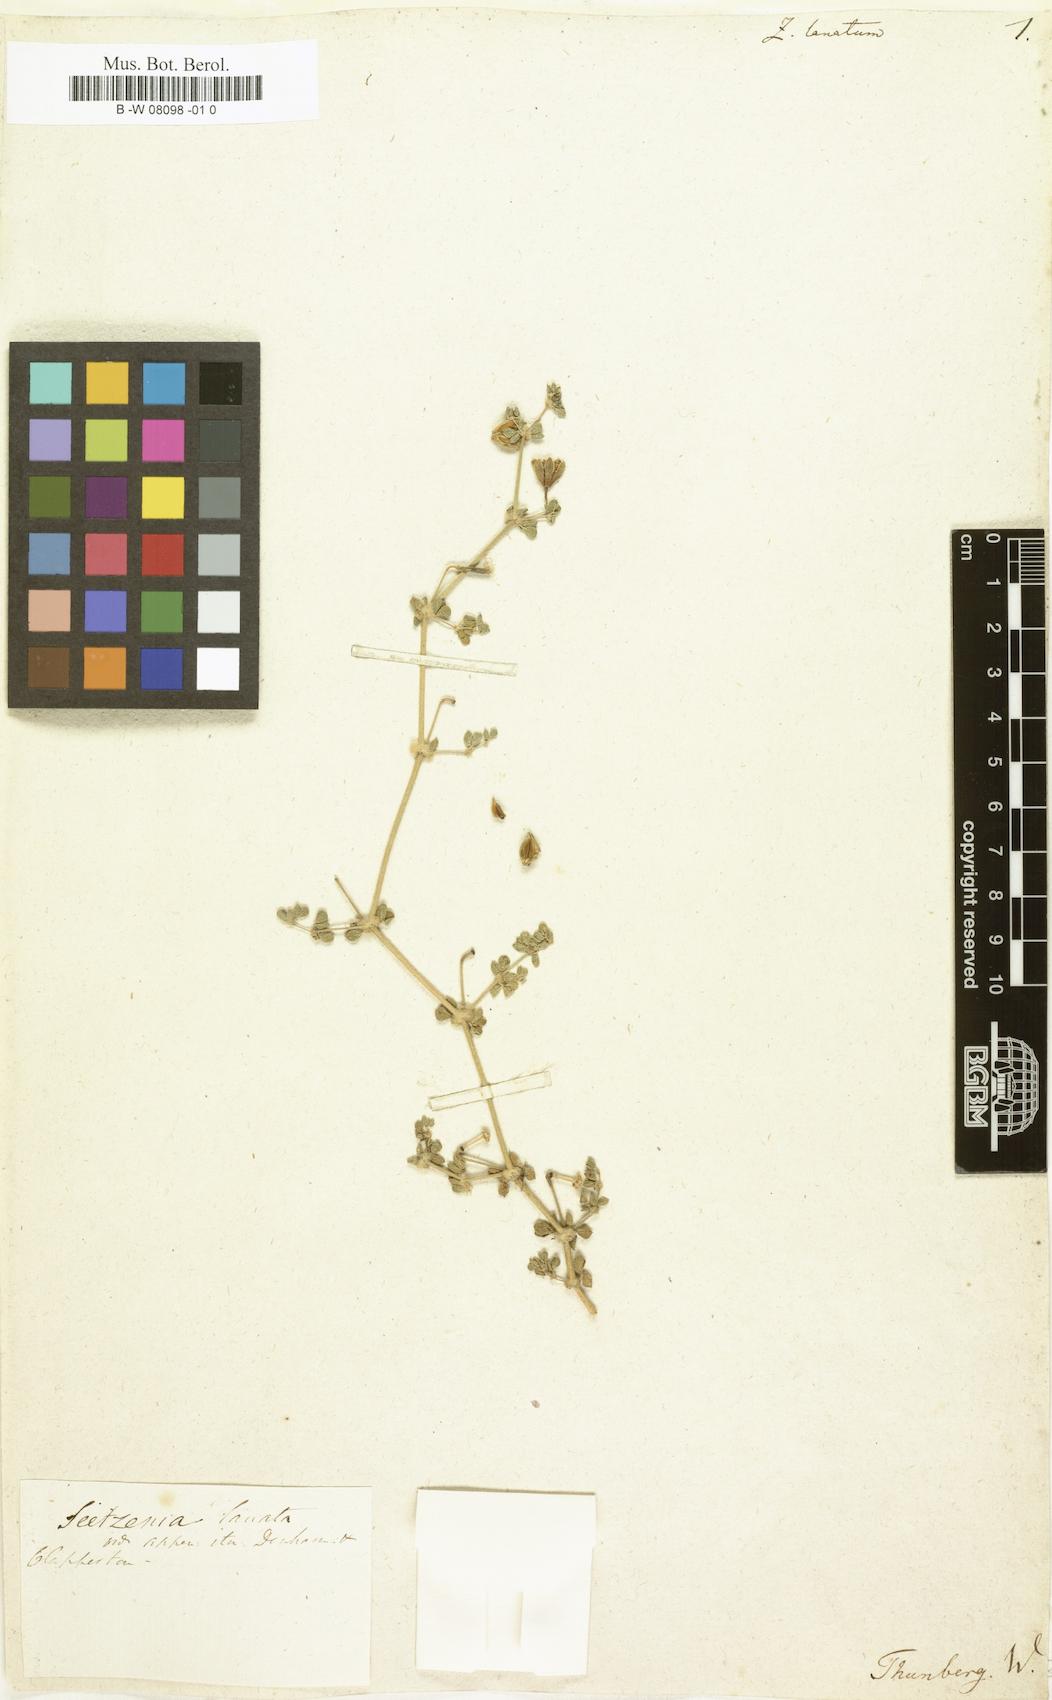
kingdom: Plantae
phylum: Tracheophyta
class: Magnoliopsida
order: Zygophyllales
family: Zygophyllaceae
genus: Seetzenia
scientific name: Seetzenia lanata
